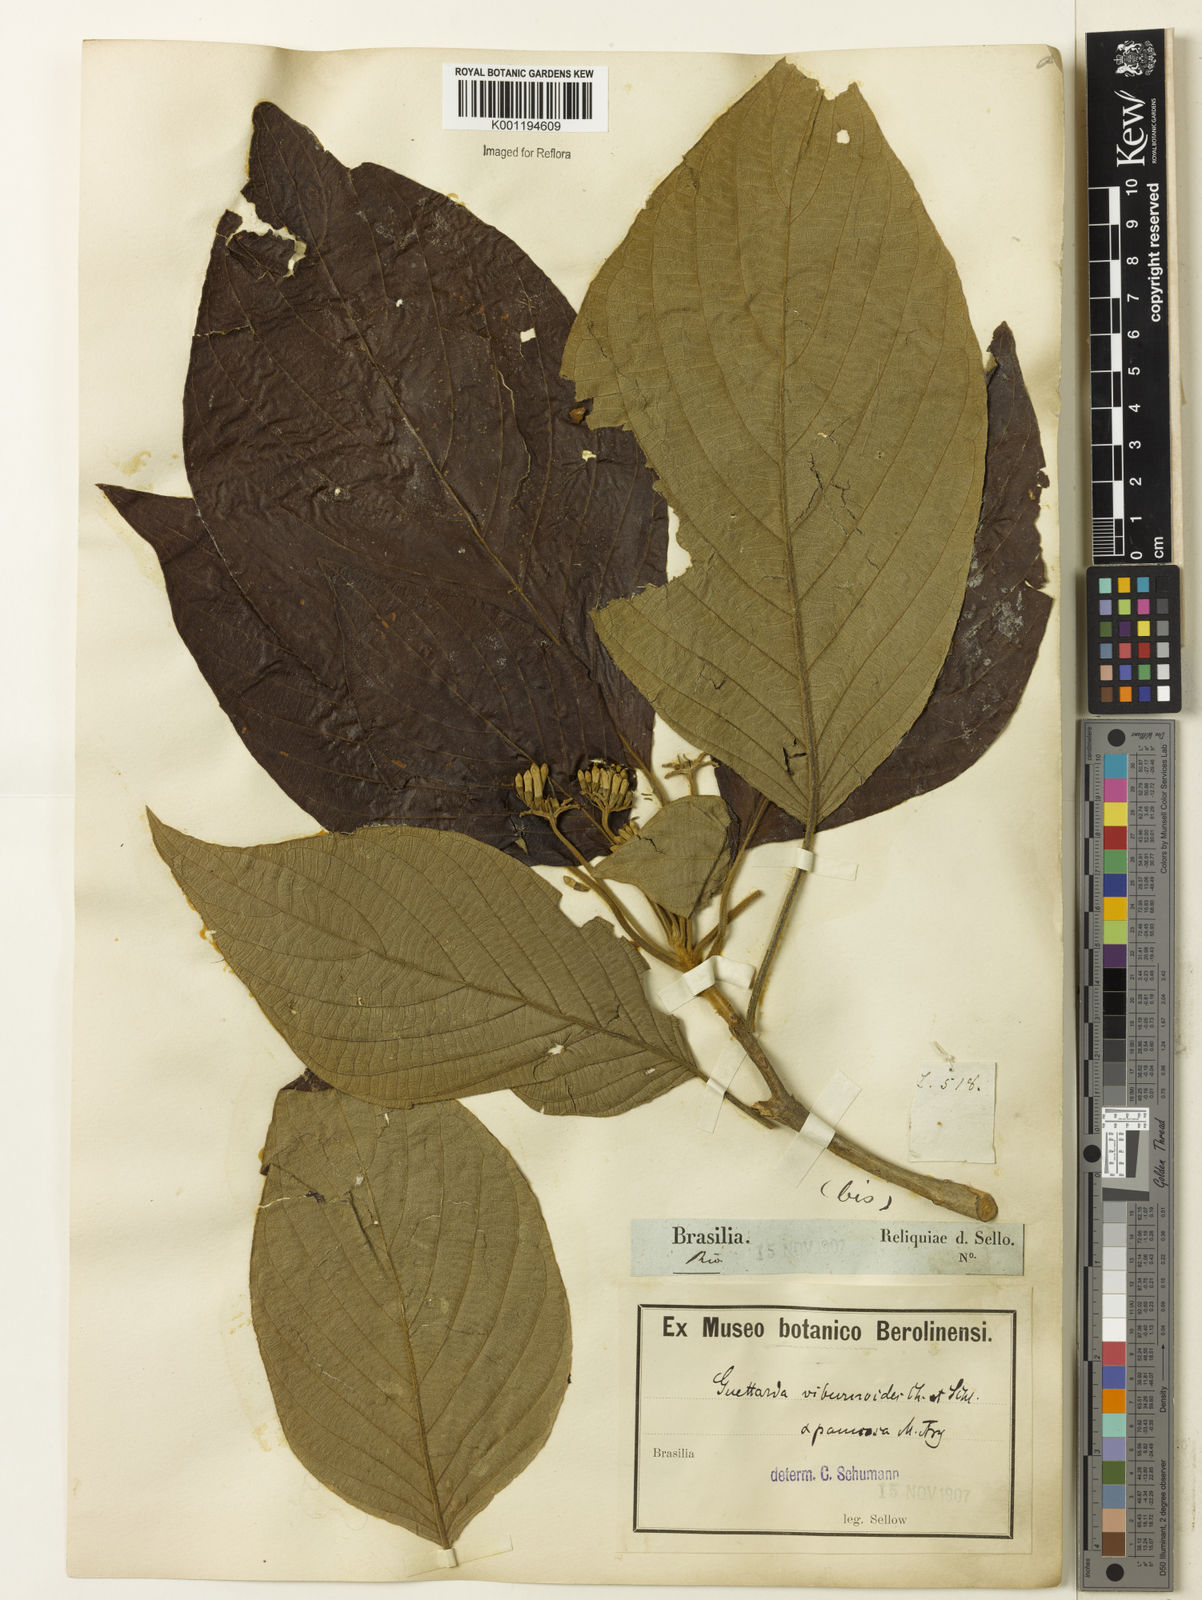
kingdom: Plantae
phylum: Tracheophyta
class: Magnoliopsida
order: Gentianales
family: Rubiaceae
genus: Guettarda
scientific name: Guettarda viburnoides
